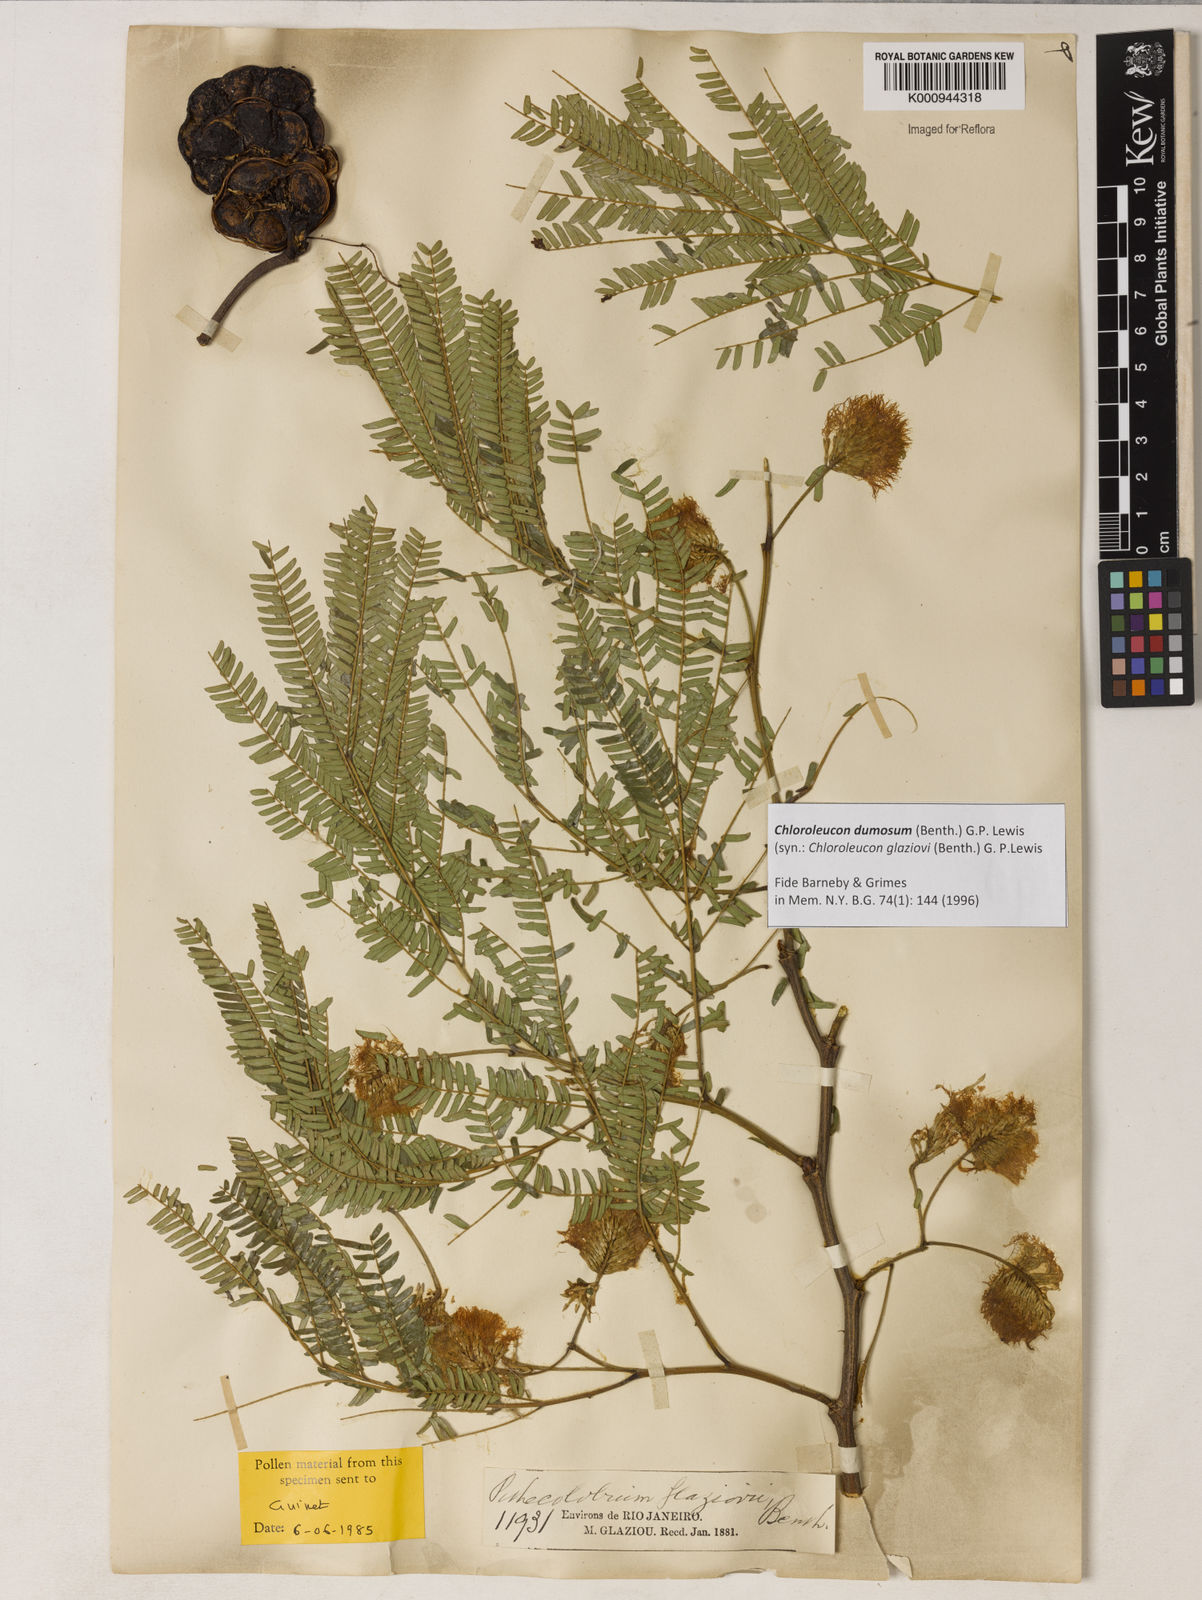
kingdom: Plantae
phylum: Tracheophyta
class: Magnoliopsida
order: Fabales
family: Fabaceae
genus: Inga
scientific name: Inga stenoptera
